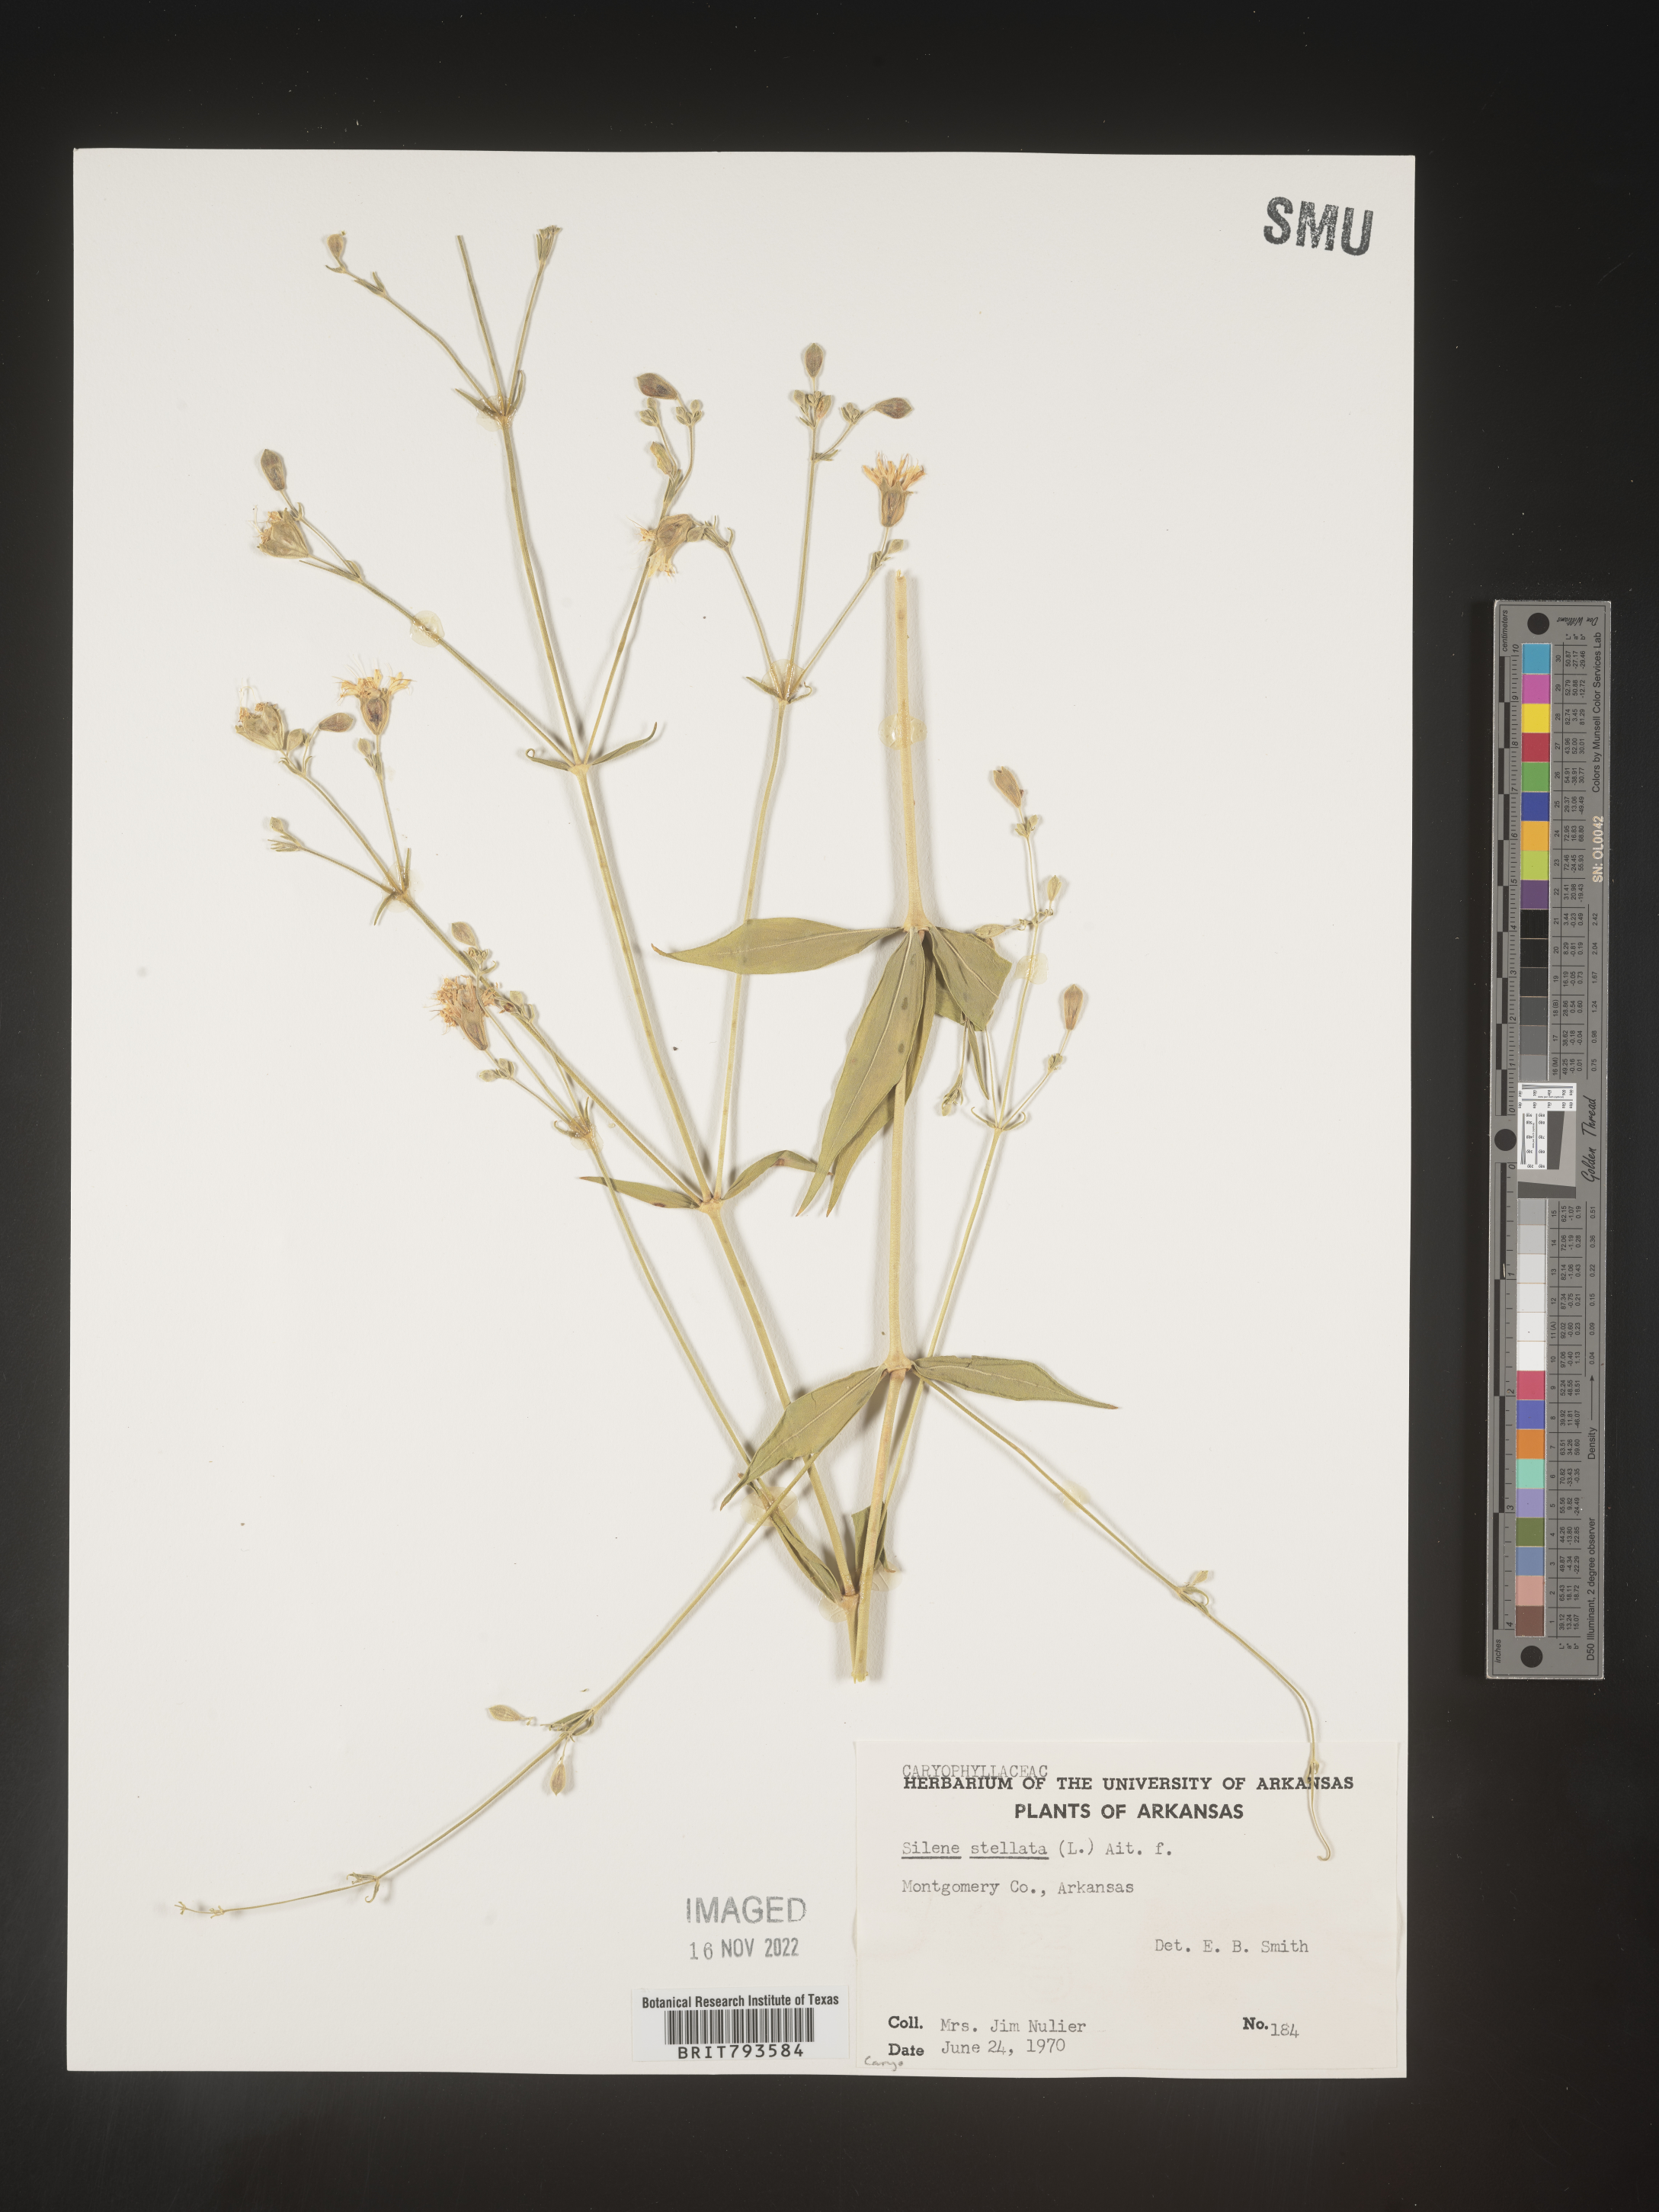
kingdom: Plantae
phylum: Tracheophyta
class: Magnoliopsida
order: Caryophyllales
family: Caryophyllaceae
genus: Silene
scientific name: Silene stellata
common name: Starry campion
